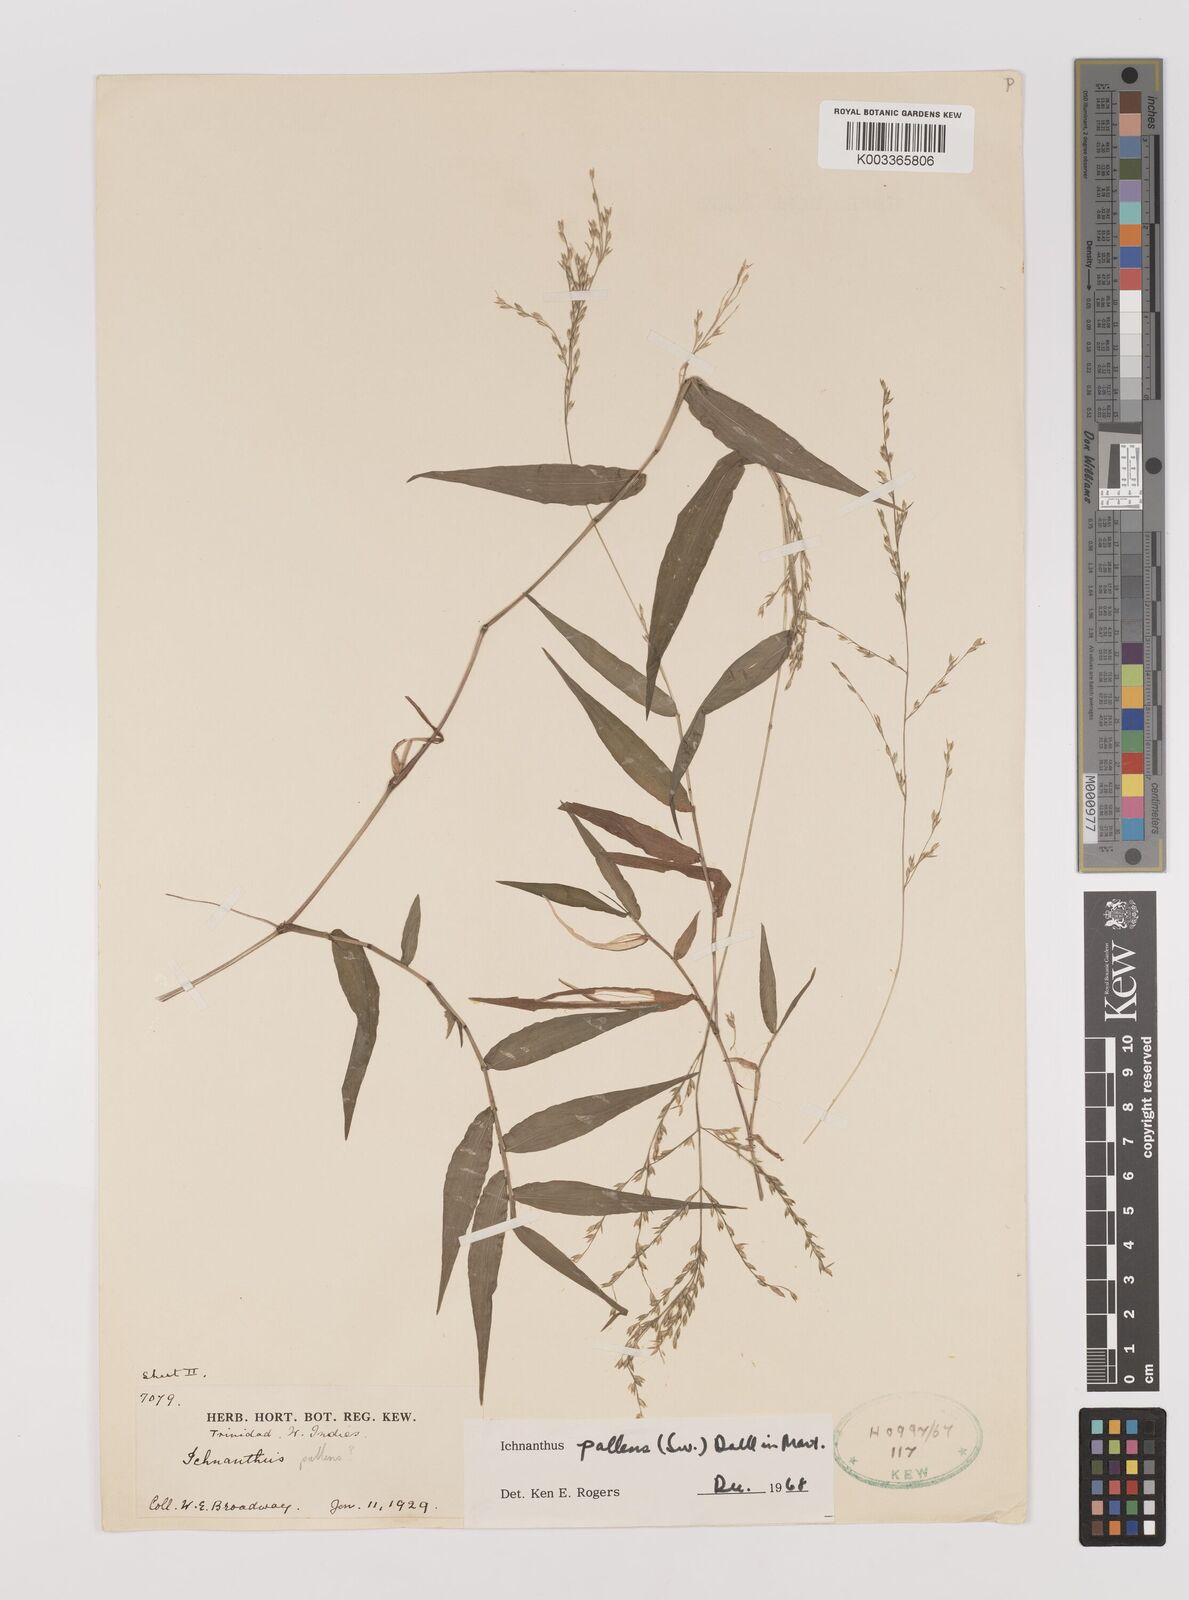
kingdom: Plantae
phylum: Tracheophyta
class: Liliopsida
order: Poales
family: Poaceae
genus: Ichnanthus
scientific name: Ichnanthus pallens
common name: Water grass
